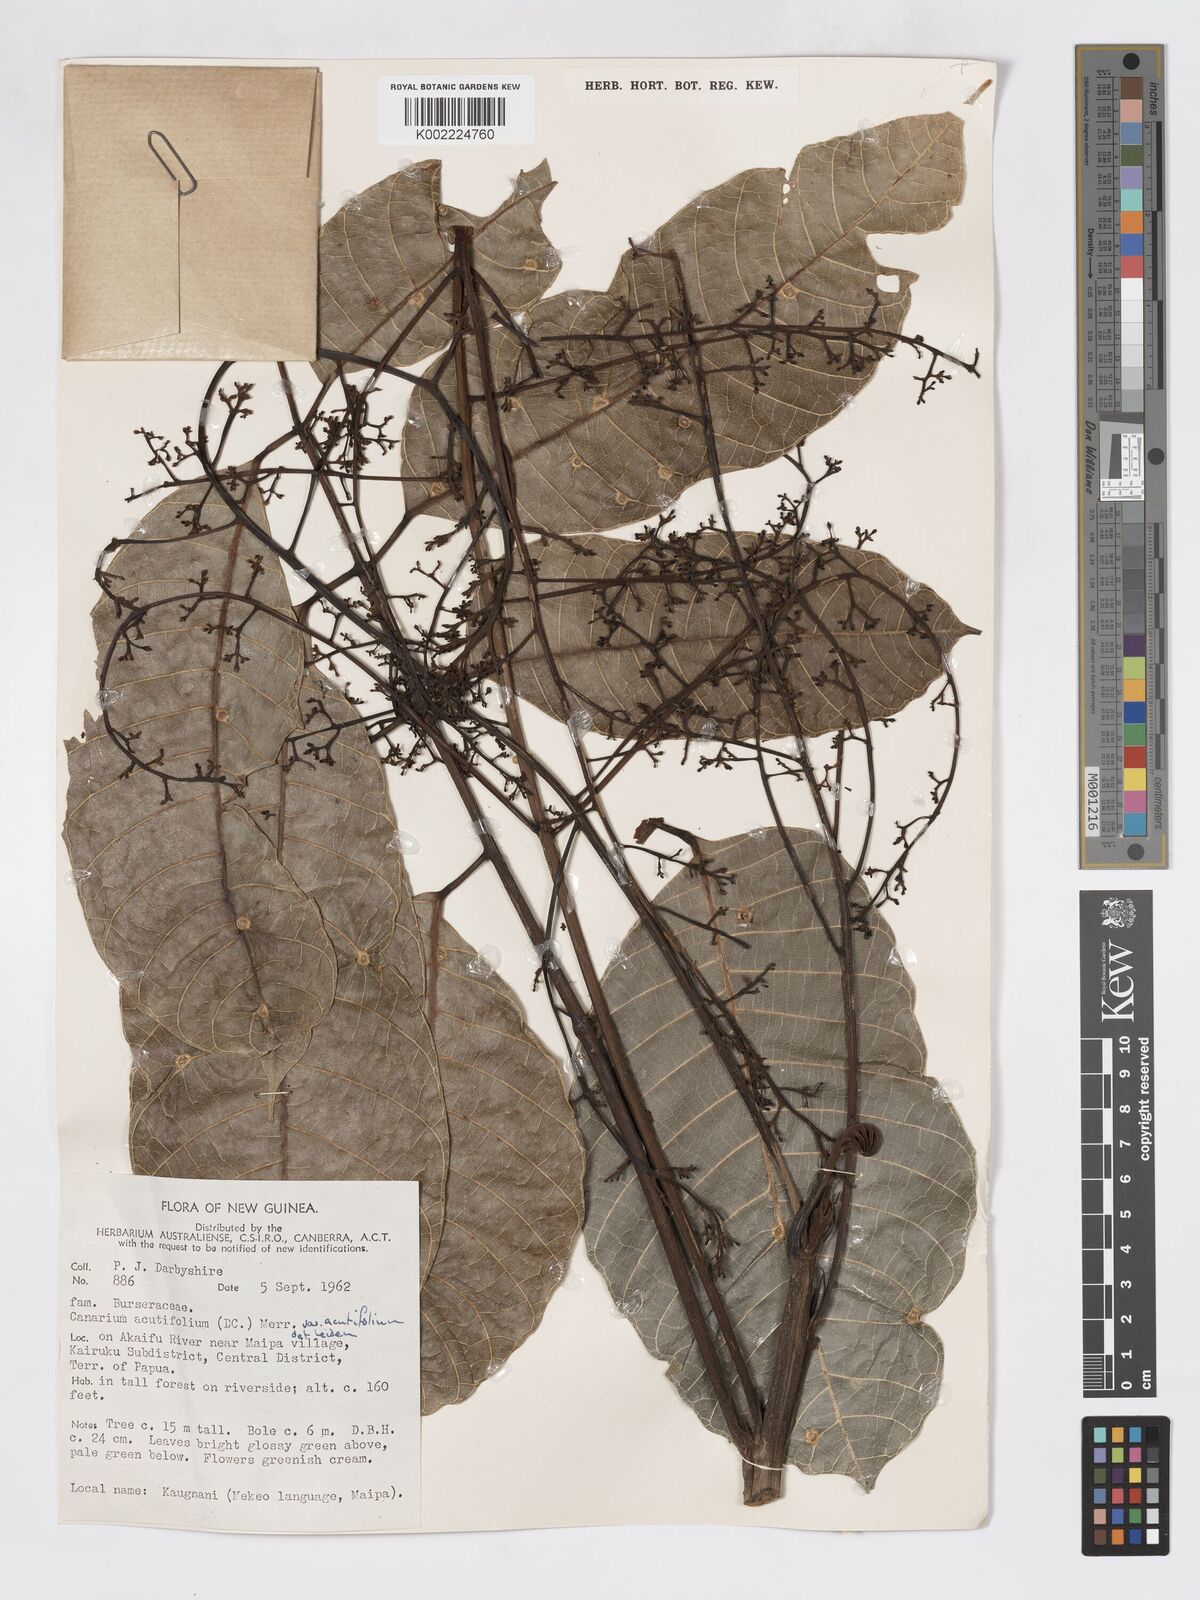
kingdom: Plantae
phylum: Tracheophyta
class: Magnoliopsida
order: Sapindales
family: Burseraceae
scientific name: Burseraceae
